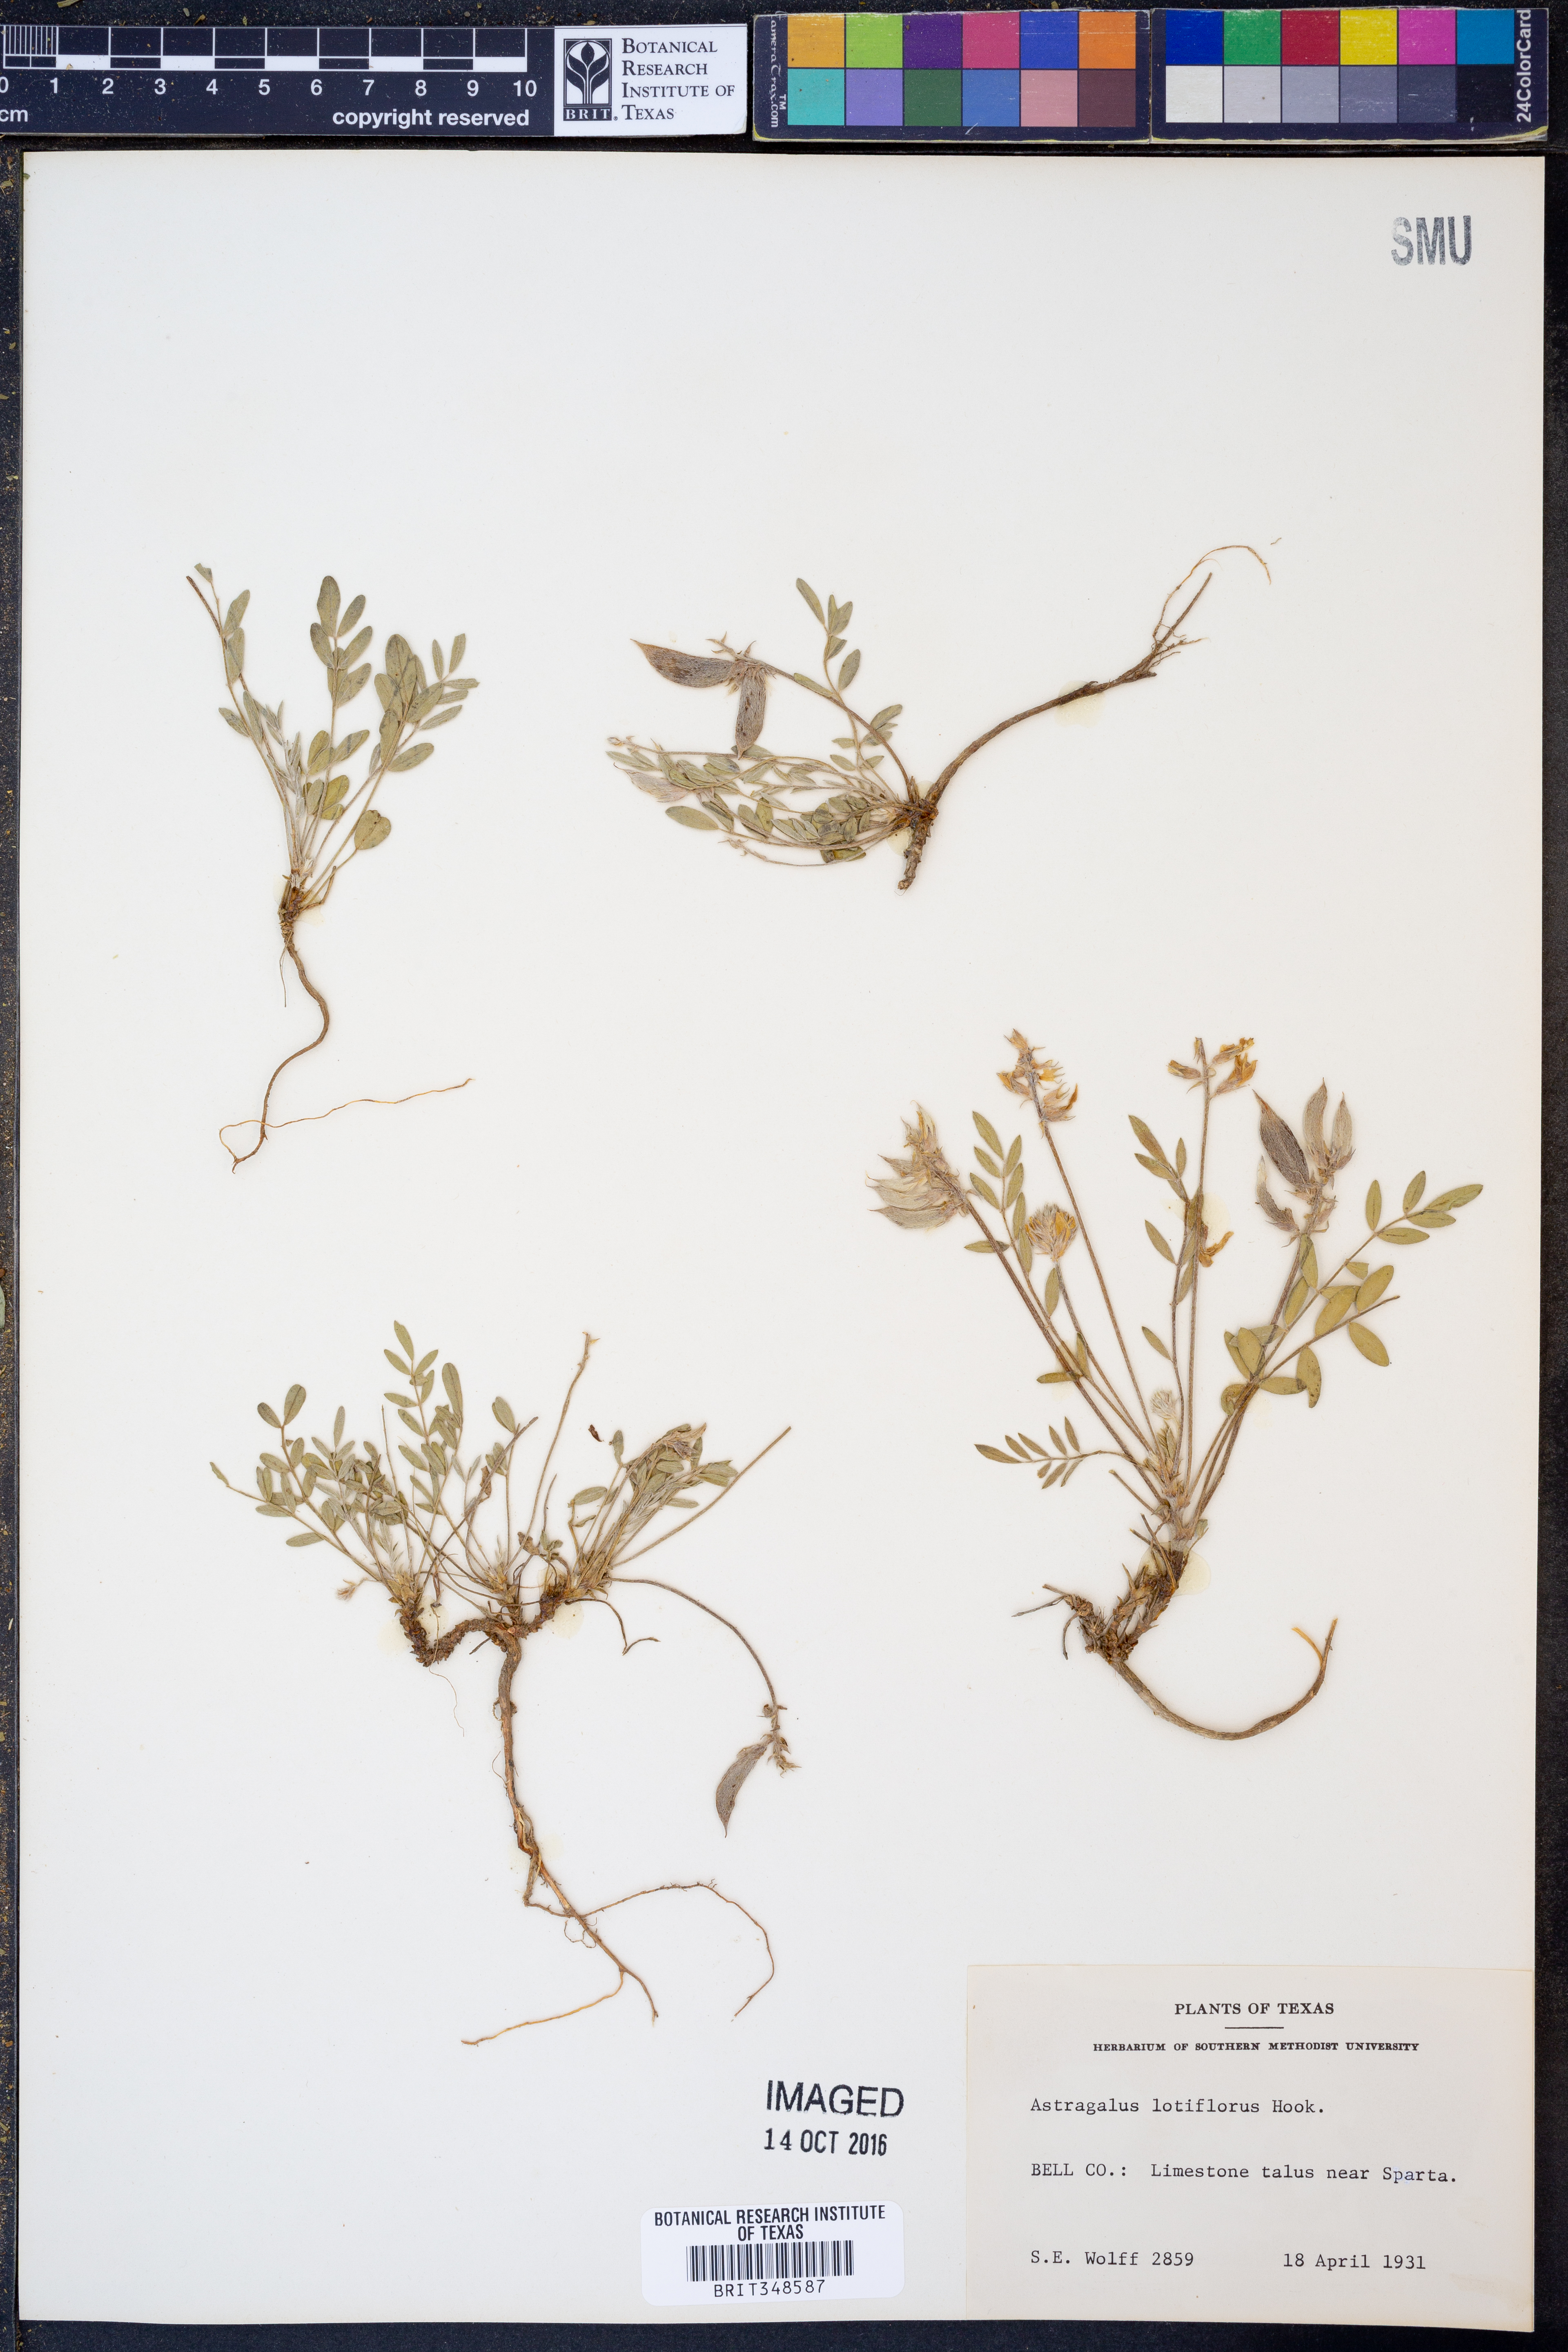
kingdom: Plantae
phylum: Tracheophyta
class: Magnoliopsida
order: Fabales
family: Fabaceae
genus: Astragalus
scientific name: Astragalus lotiflorus
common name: Lotus milk-vetch
